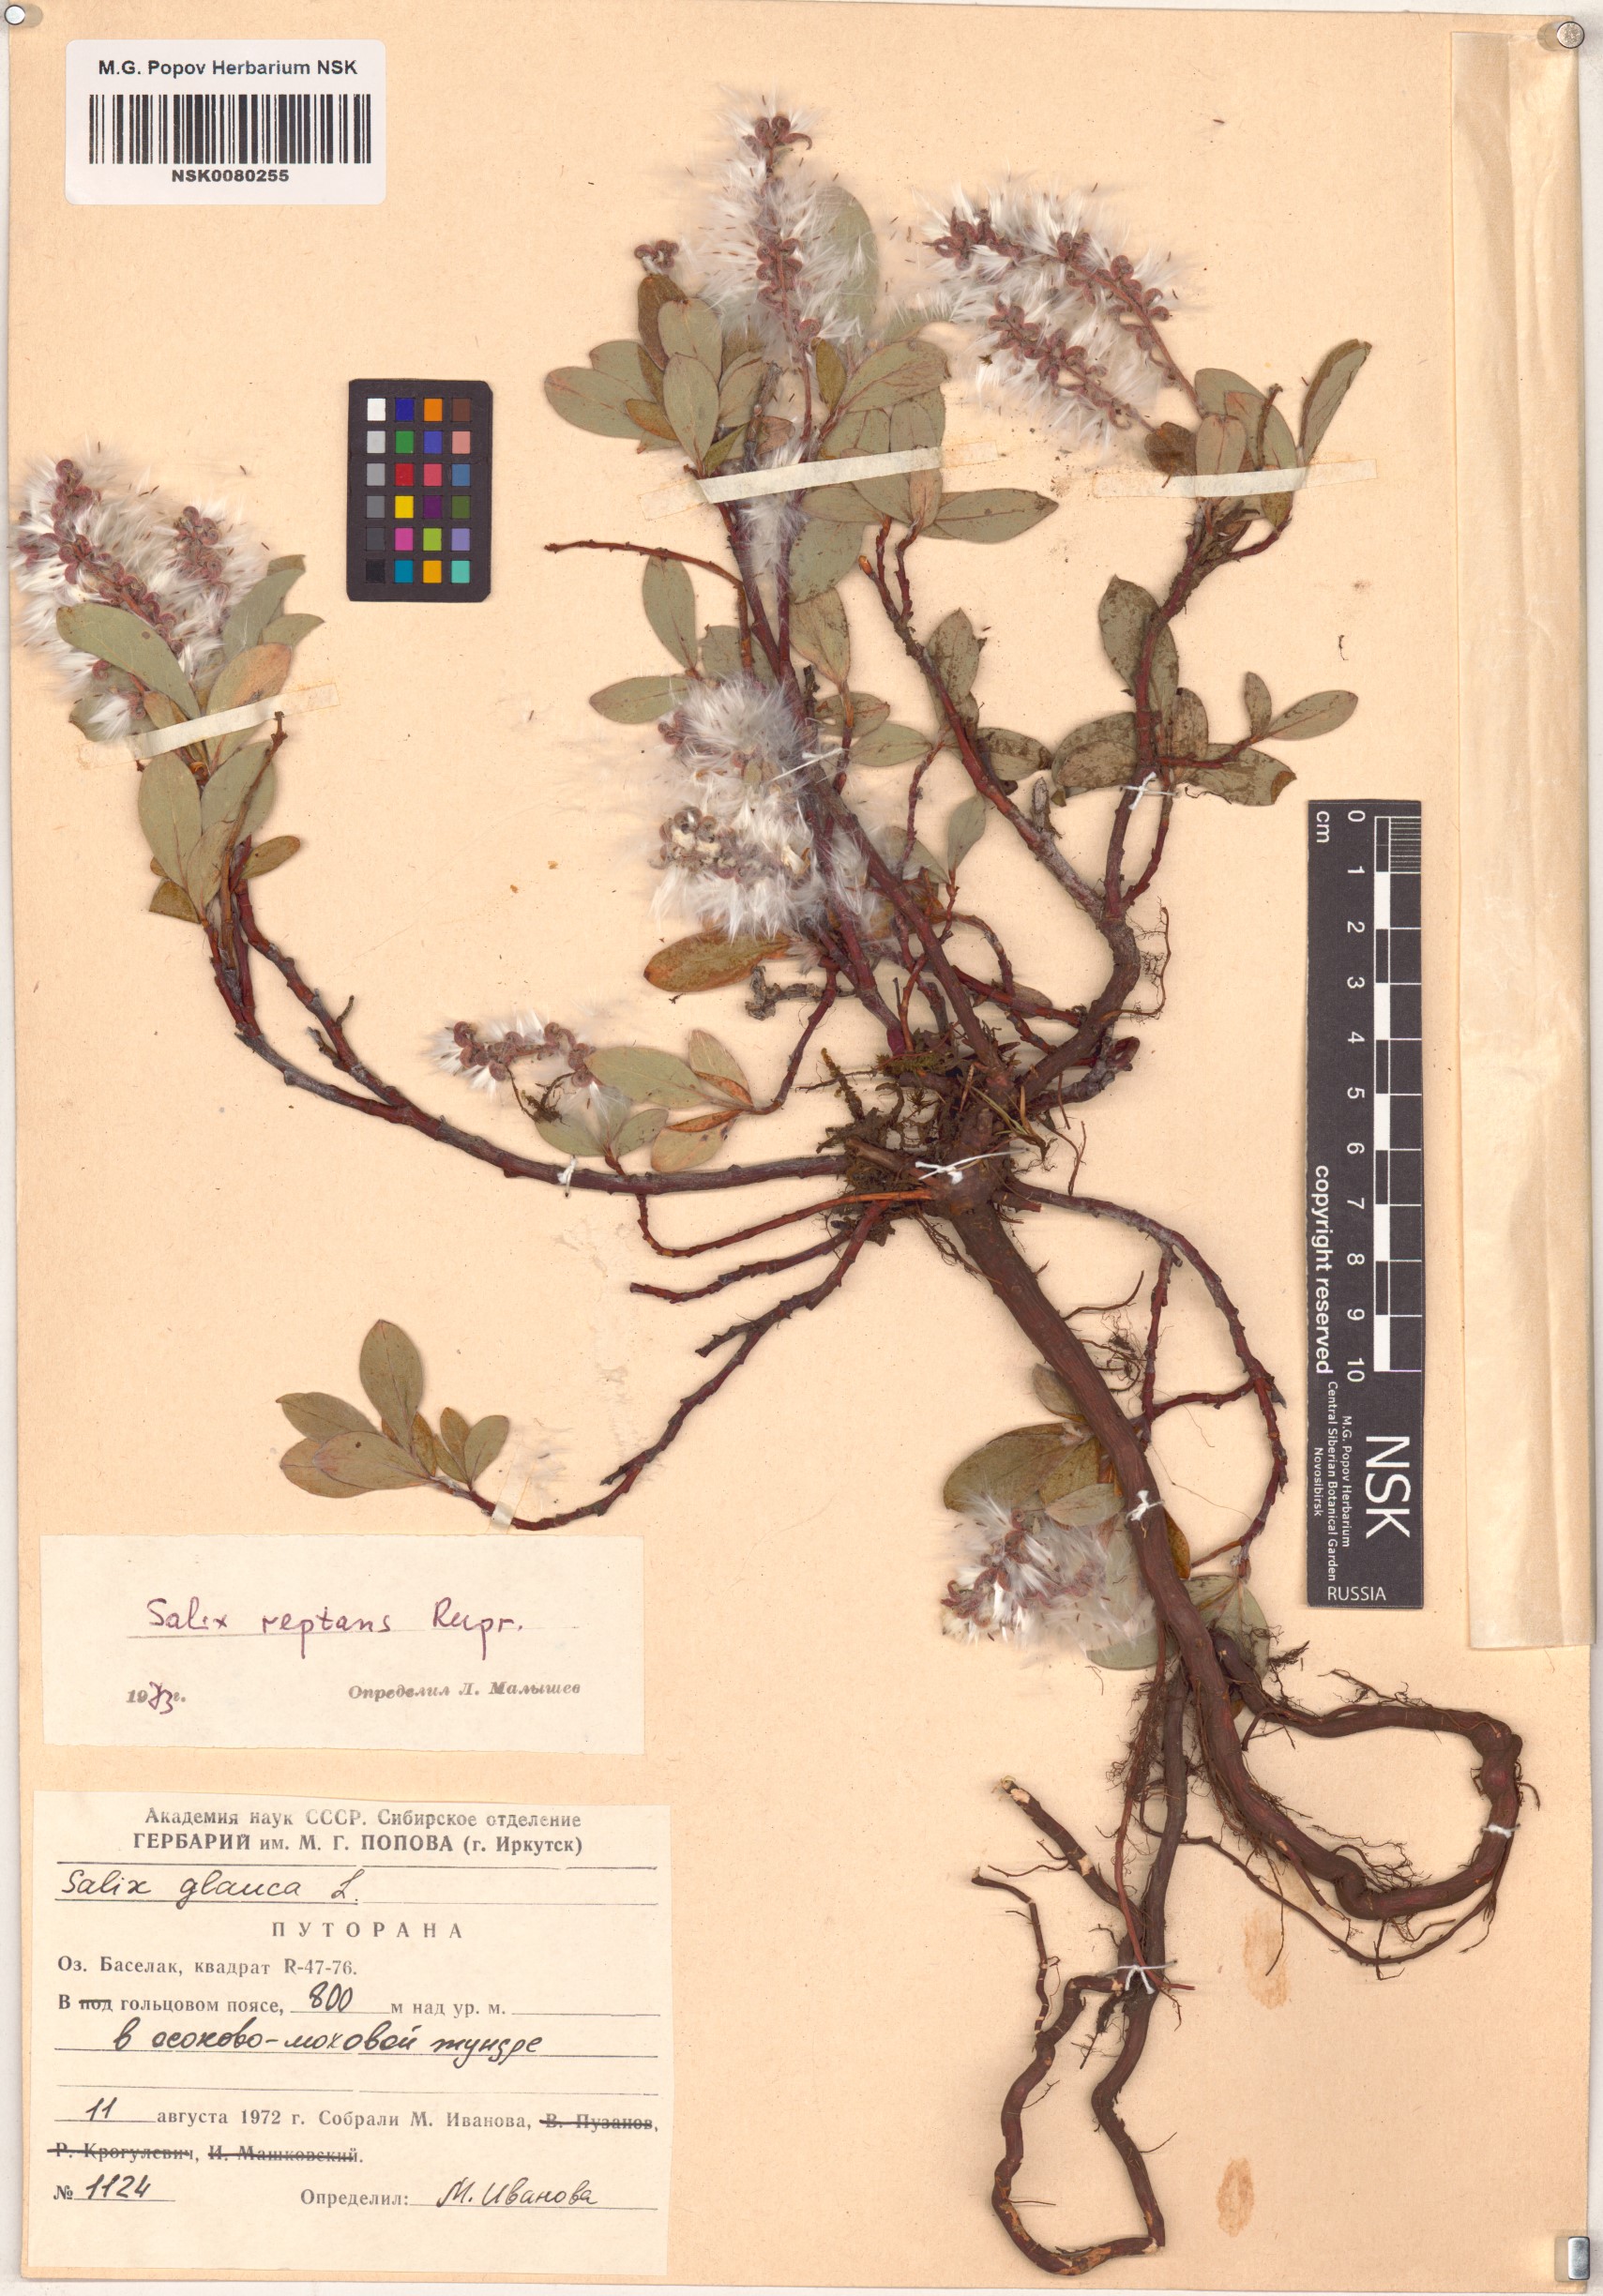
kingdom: Plantae
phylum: Tracheophyta
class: Magnoliopsida
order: Malpighiales
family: Salicaceae
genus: Salix
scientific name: Salix reptans
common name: Arctic creeping willow
